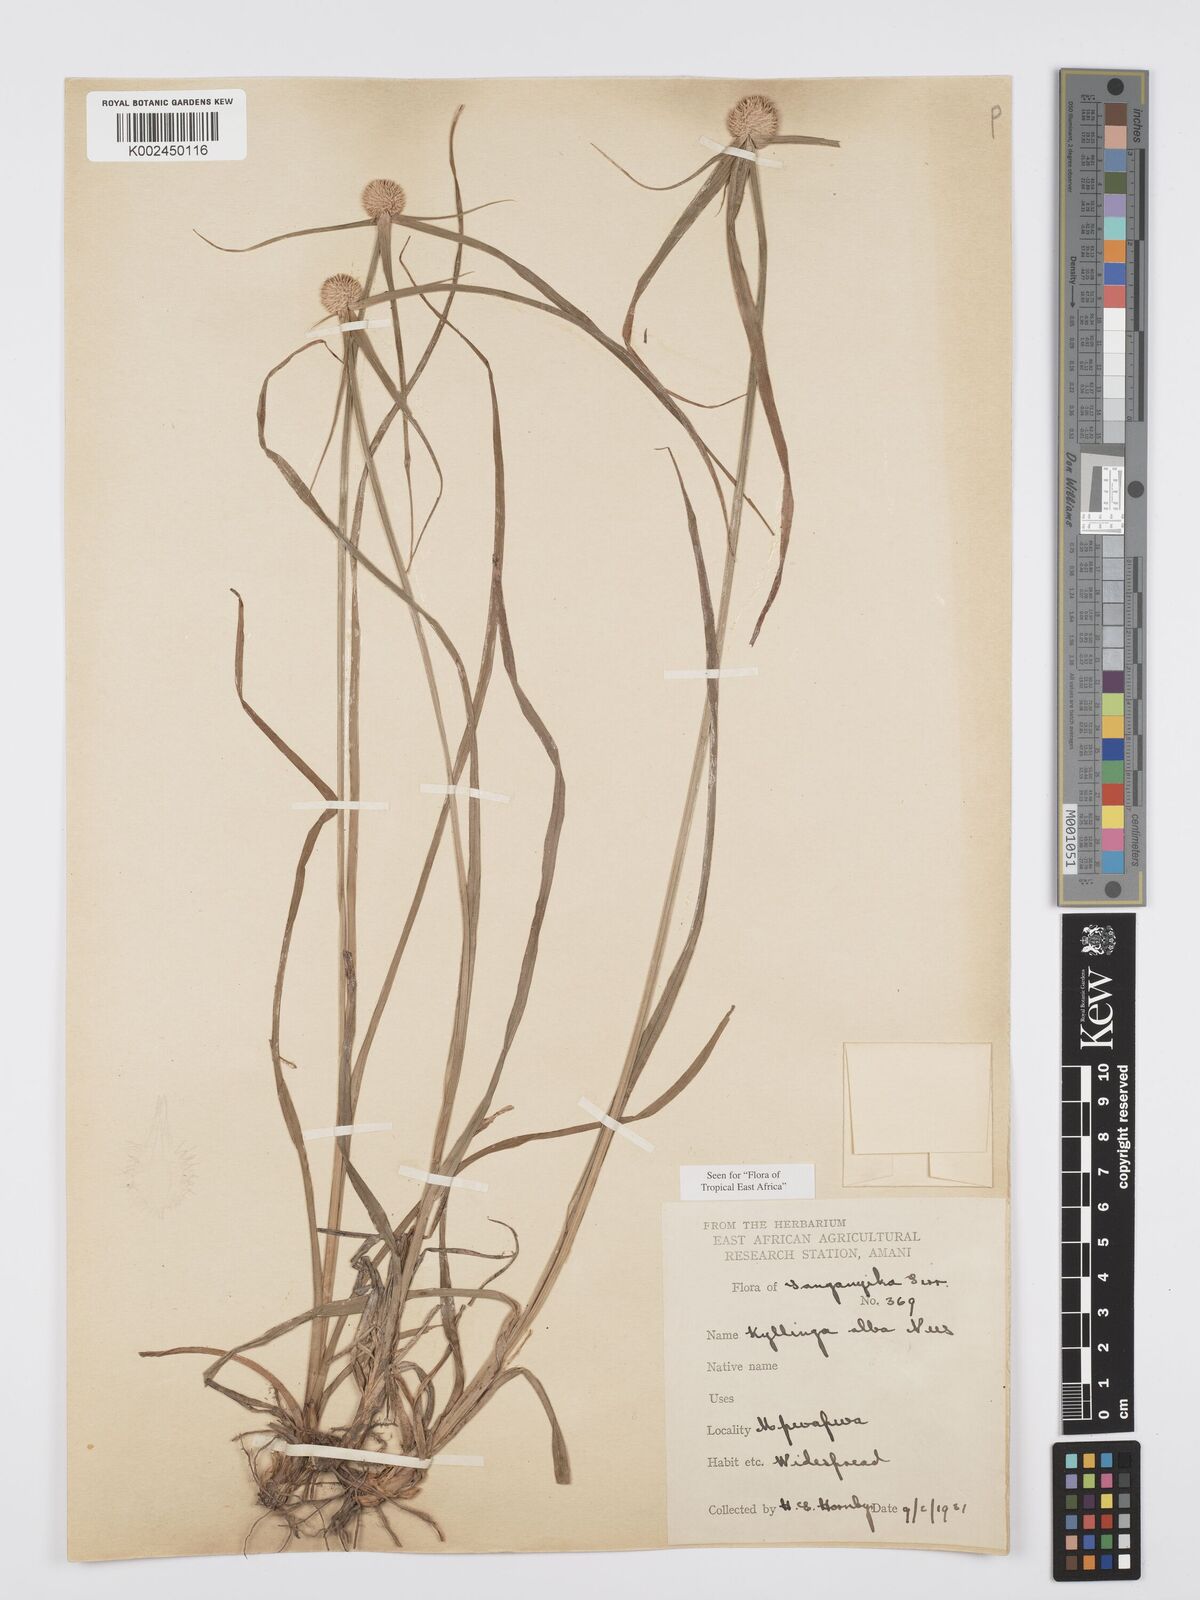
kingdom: Plantae
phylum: Tracheophyta
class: Liliopsida
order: Poales
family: Cyperaceae
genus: Cyperus
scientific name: Cyperus
